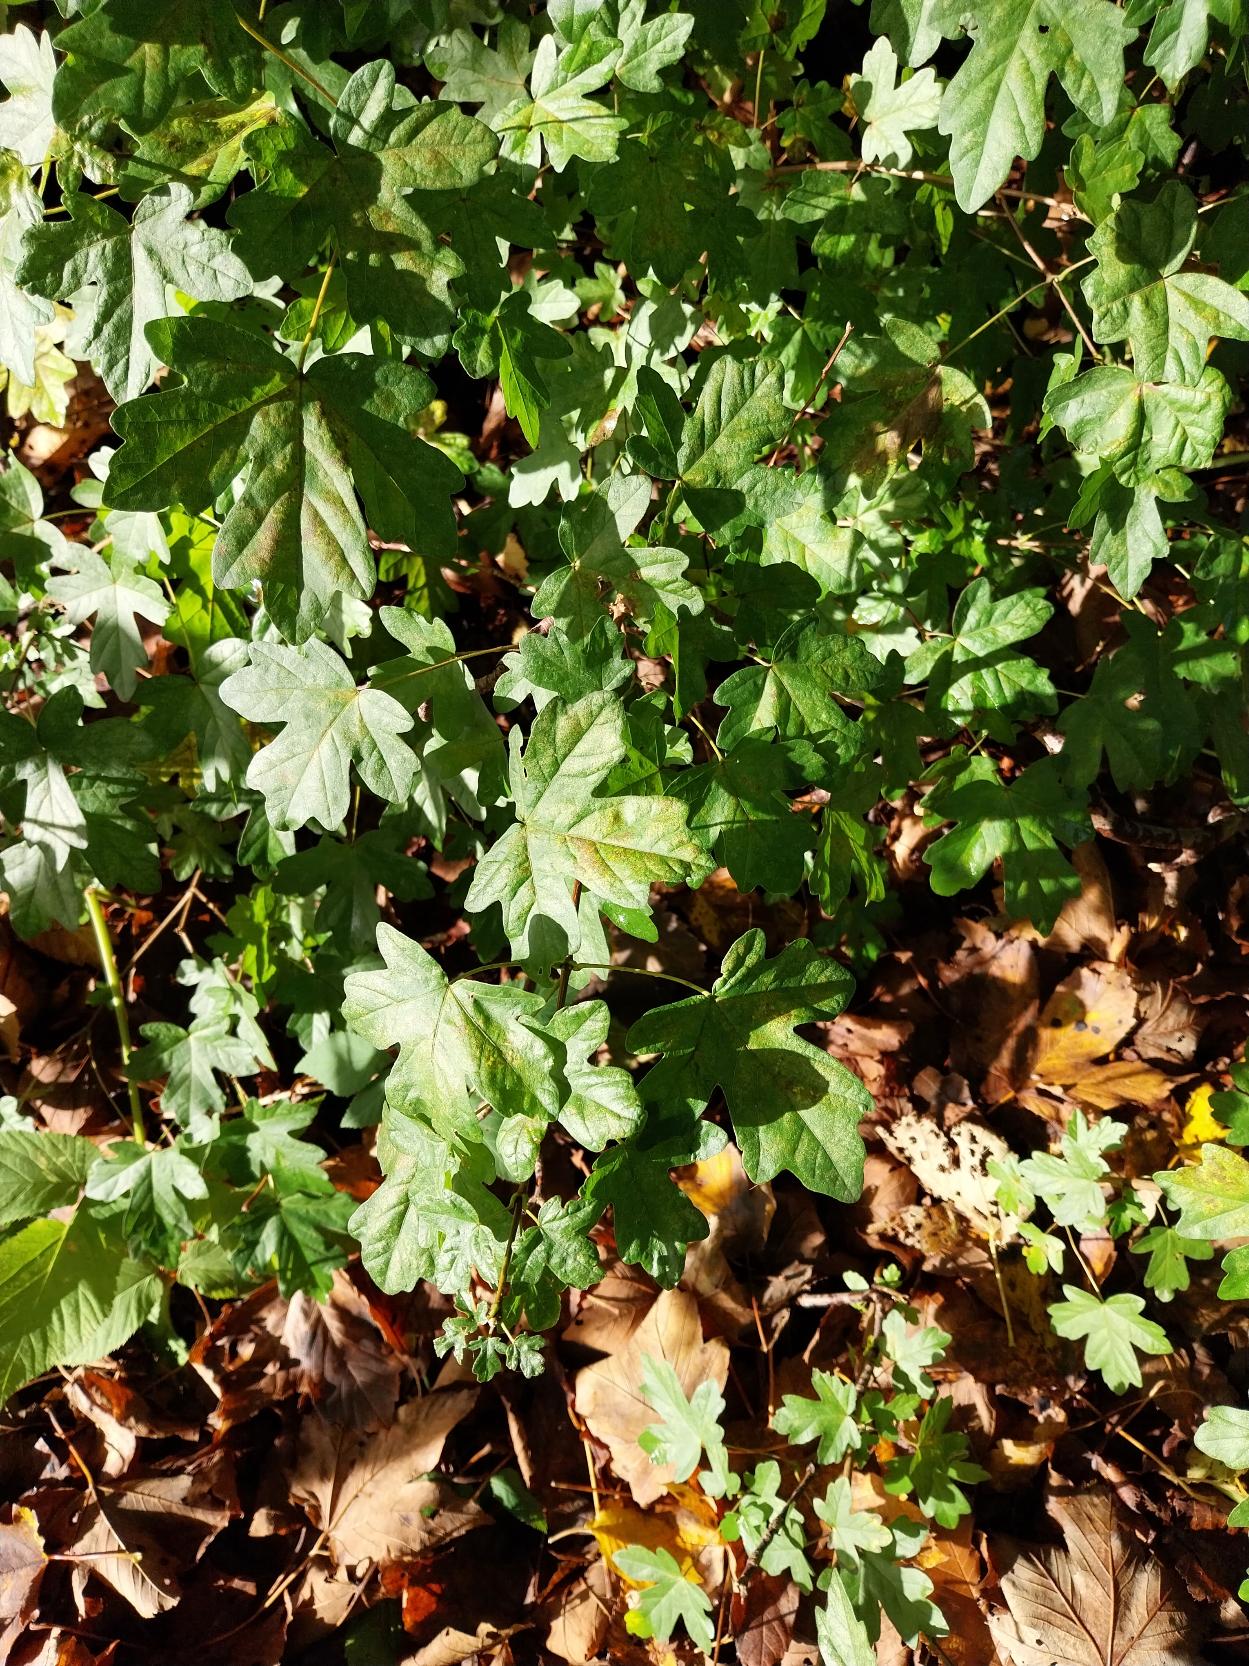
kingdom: Plantae
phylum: Tracheophyta
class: Magnoliopsida
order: Sapindales
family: Sapindaceae
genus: Acer
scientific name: Acer campestre
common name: Navr
